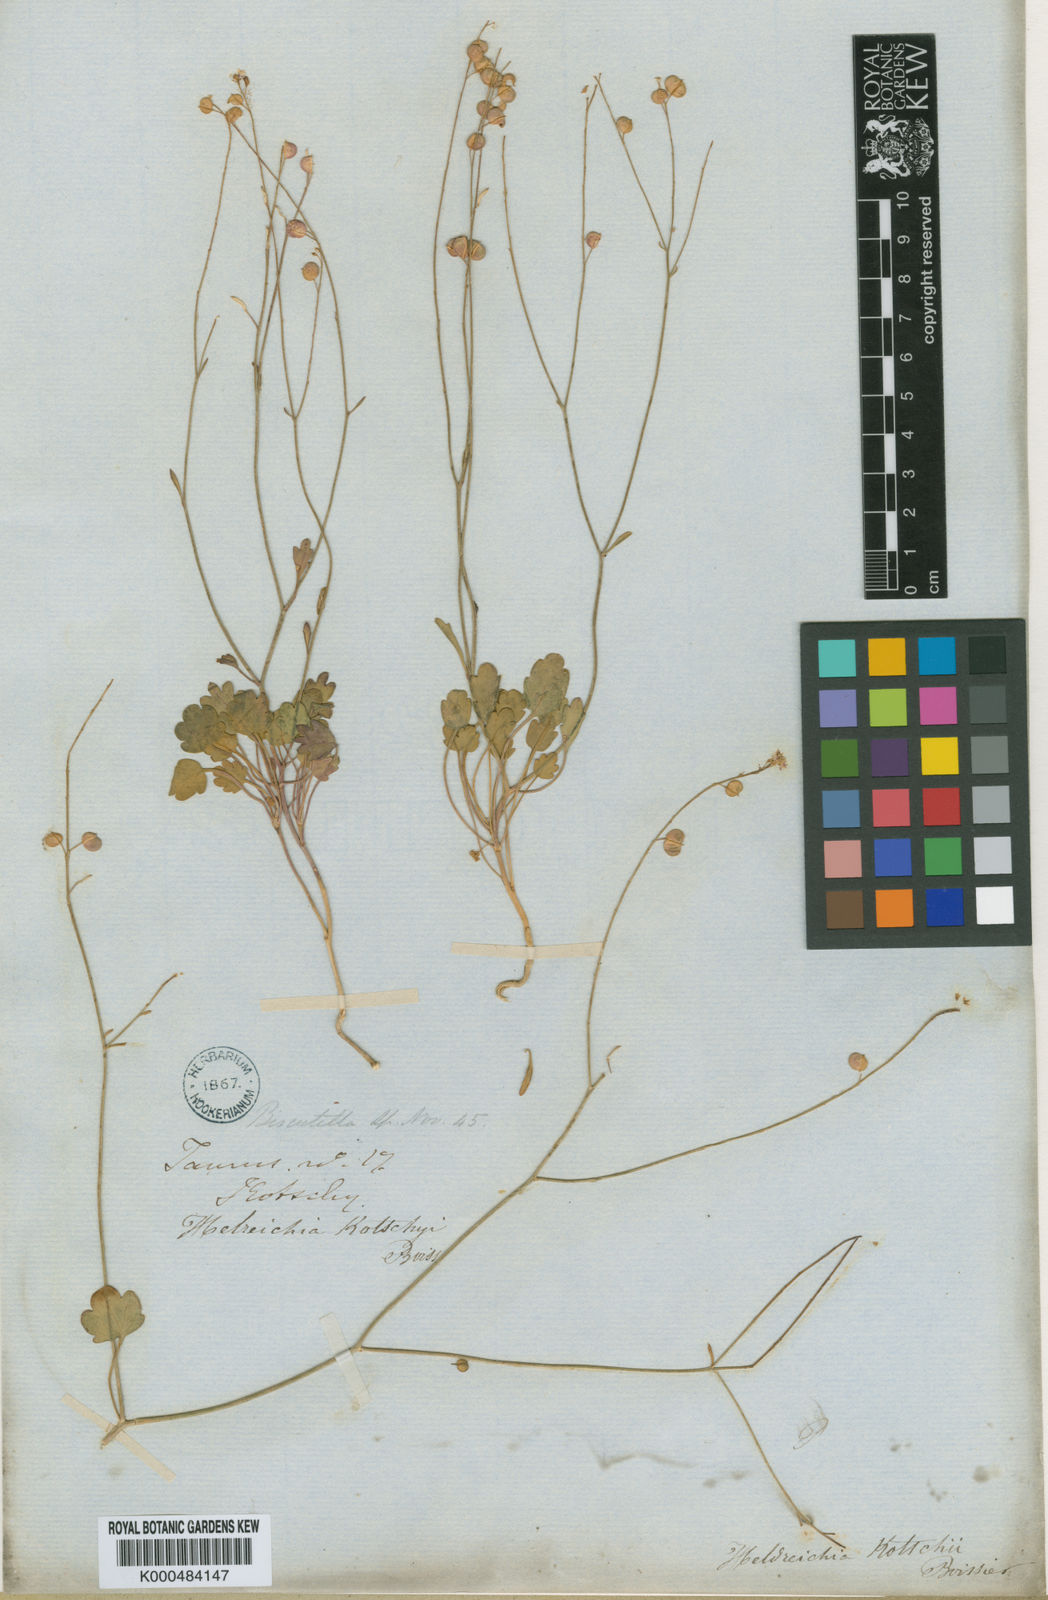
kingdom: Plantae
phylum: Tracheophyta
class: Magnoliopsida
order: Brassicales
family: Brassicaceae
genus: Heldreichia
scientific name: Heldreichia
